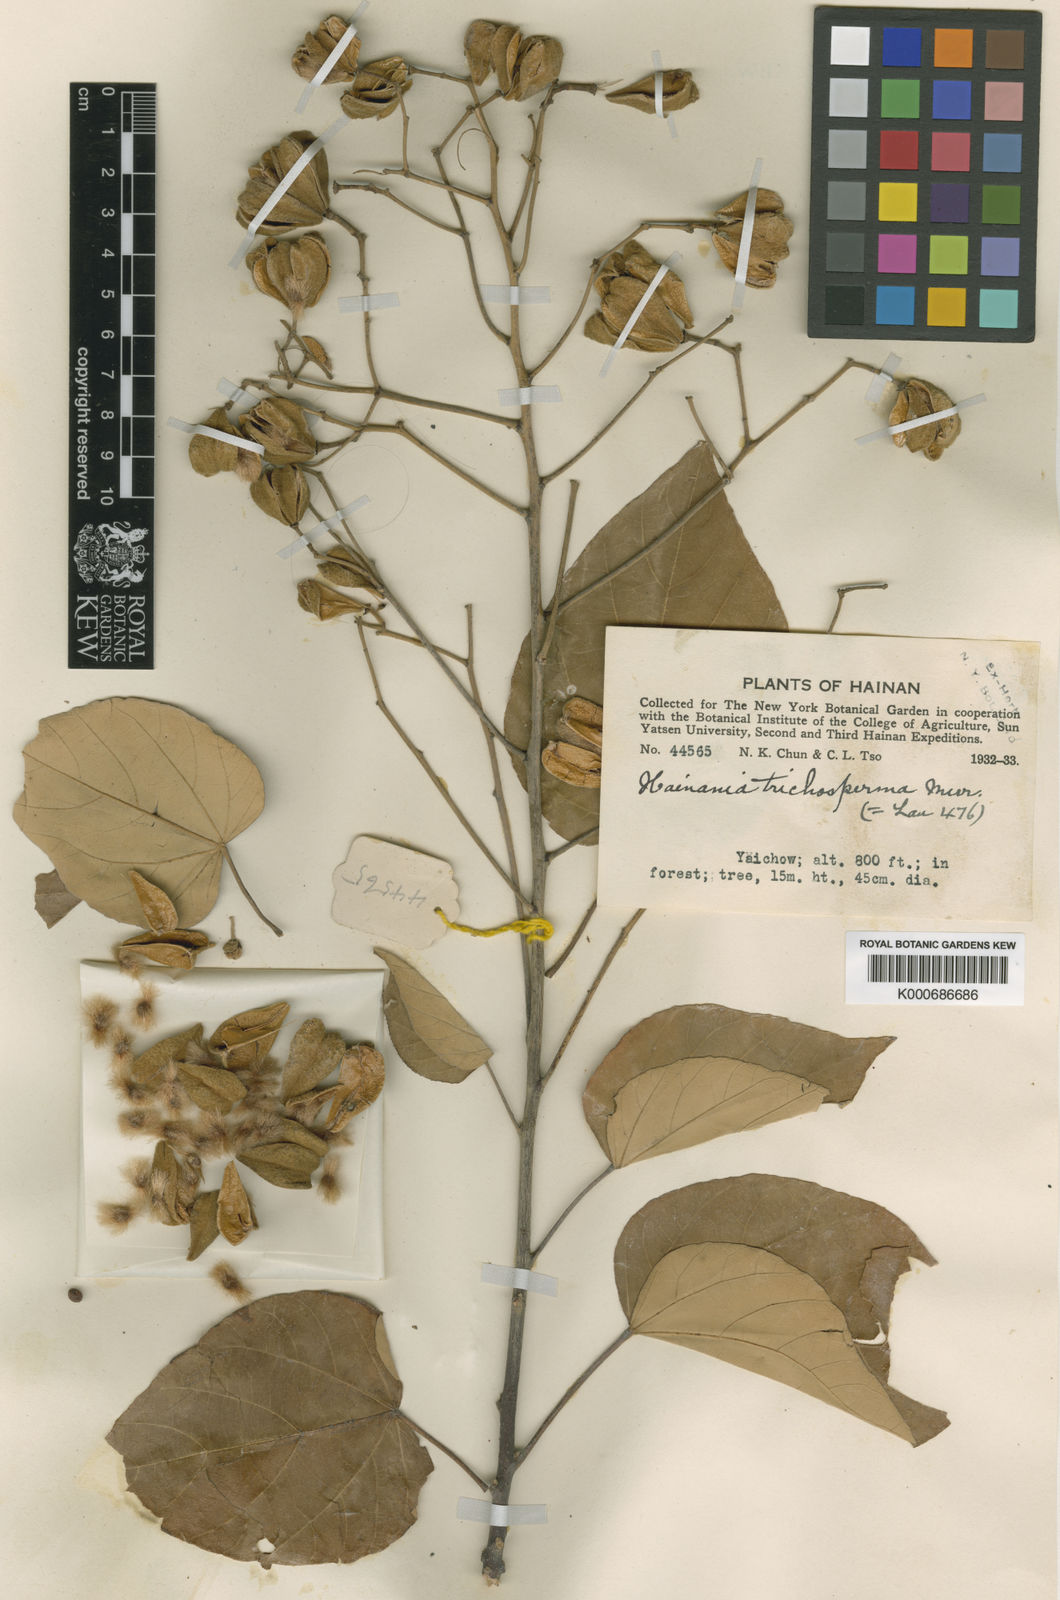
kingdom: Plantae
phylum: Tracheophyta
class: Magnoliopsida
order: Malvales
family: Malvaceae
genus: Pityranthe
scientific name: Pityranthe trichosperma
